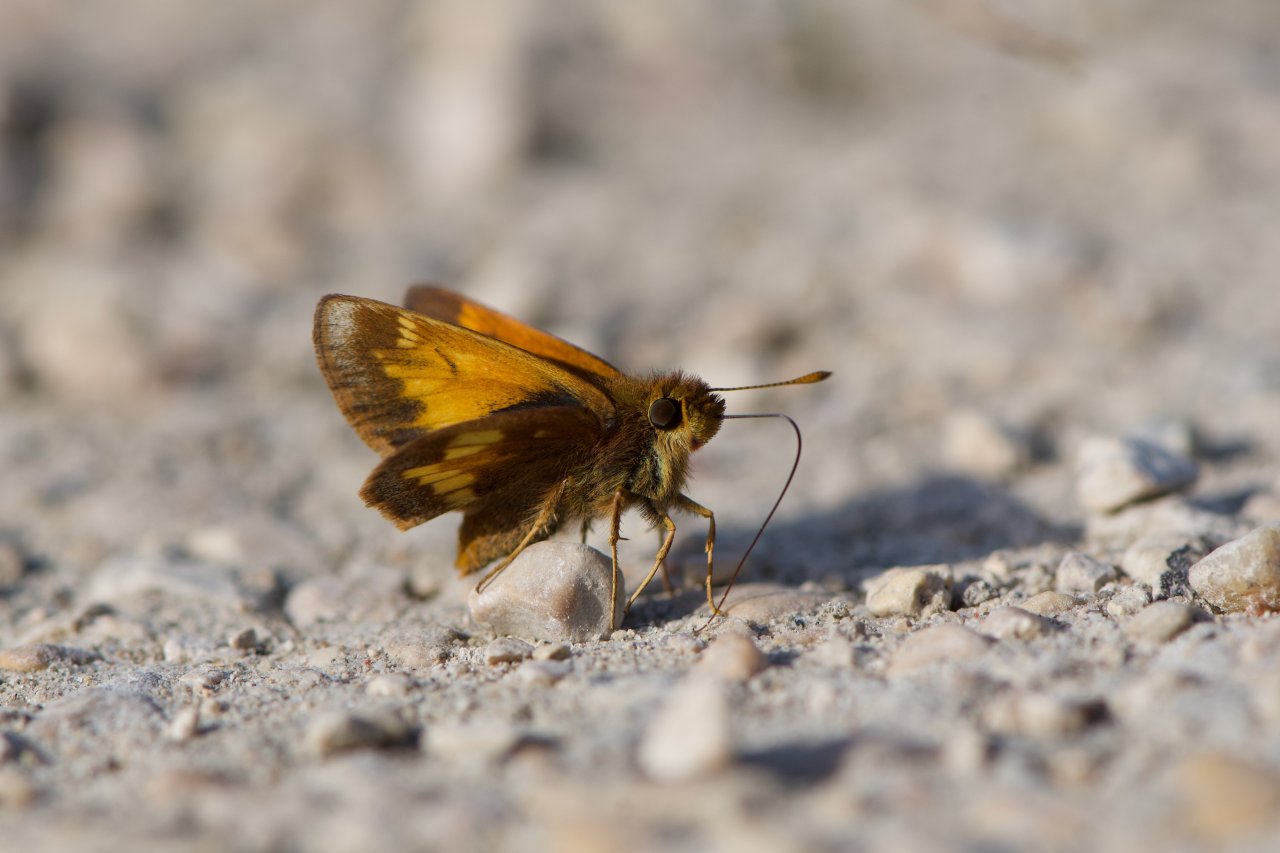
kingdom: Animalia
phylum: Arthropoda
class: Insecta
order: Lepidoptera
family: Hesperiidae
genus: Lon
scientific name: Lon hobomok
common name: Hobomok Skipper
